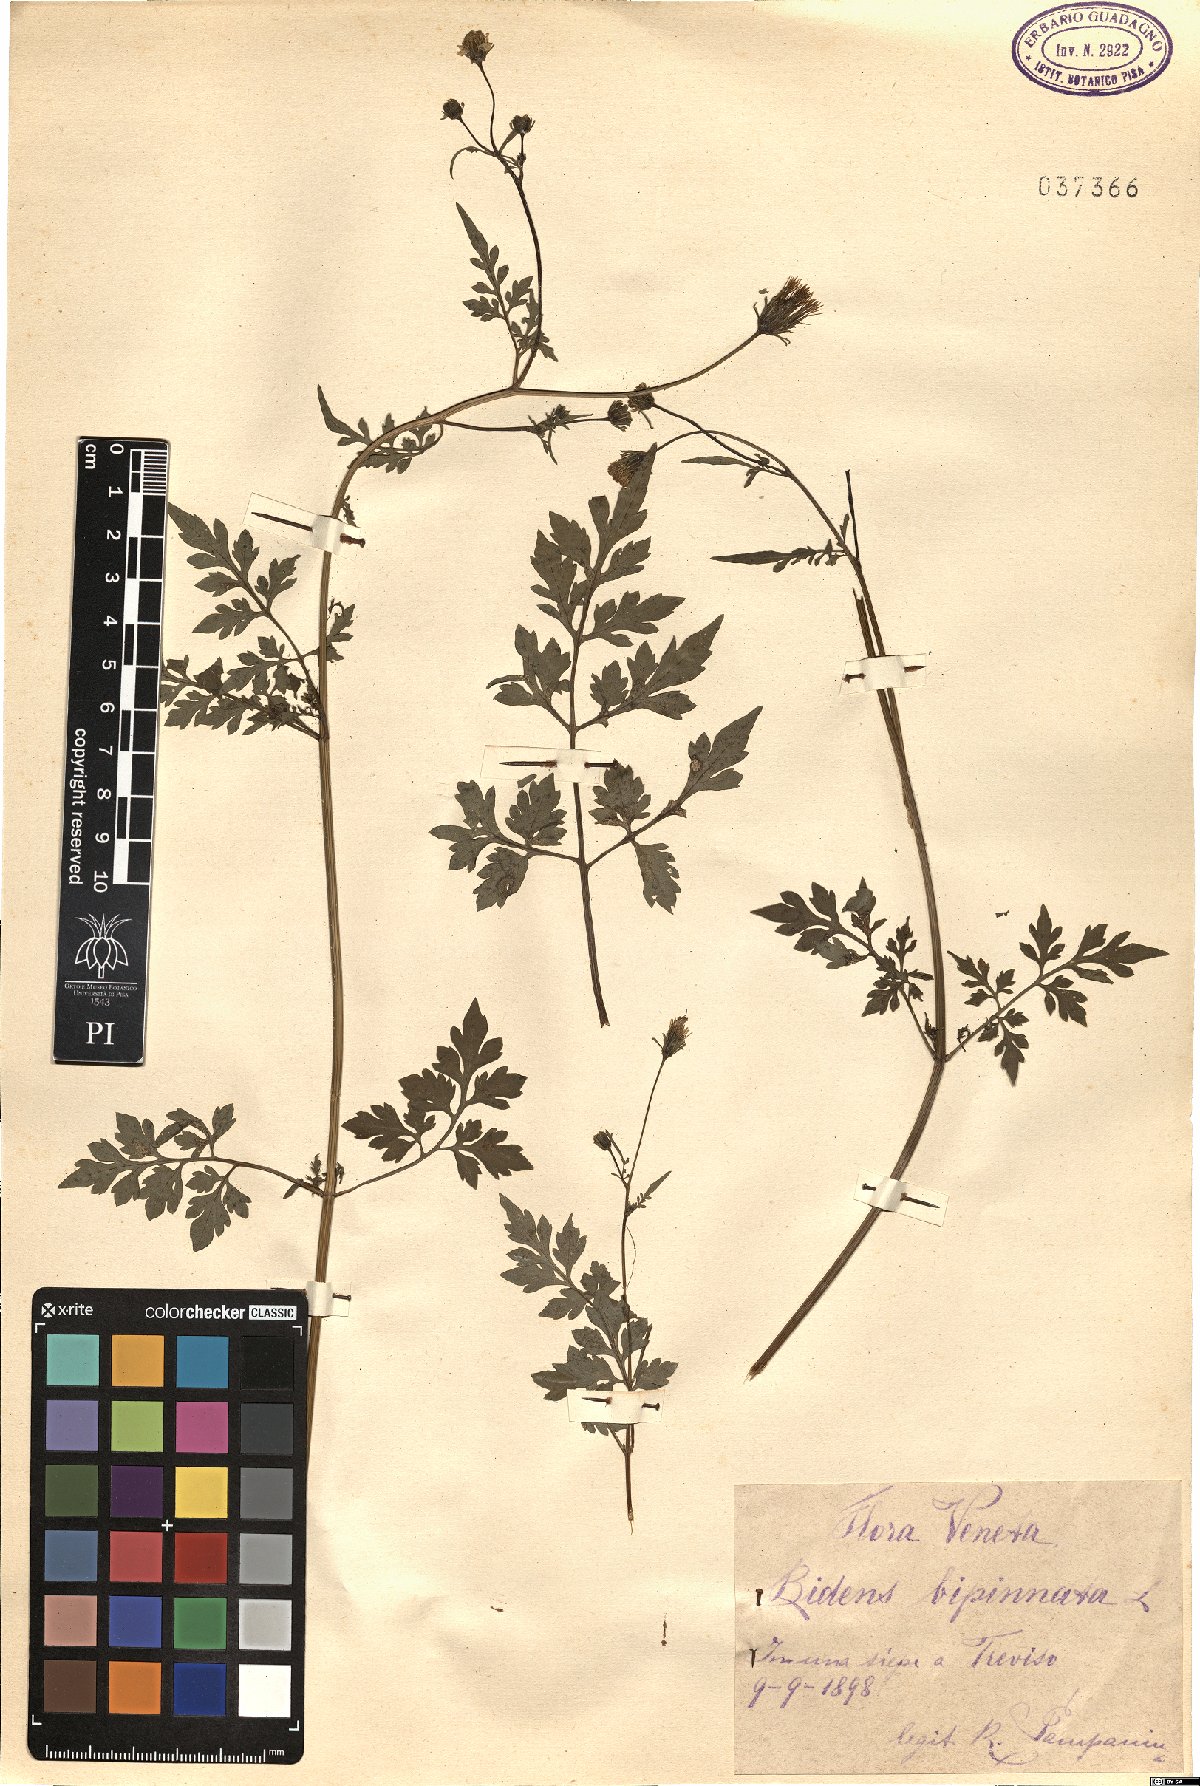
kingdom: Plantae
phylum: Tracheophyta
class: Magnoliopsida
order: Asterales
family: Asteraceae
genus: Bidens
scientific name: Bidens bipinnata
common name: Spanish-needles
